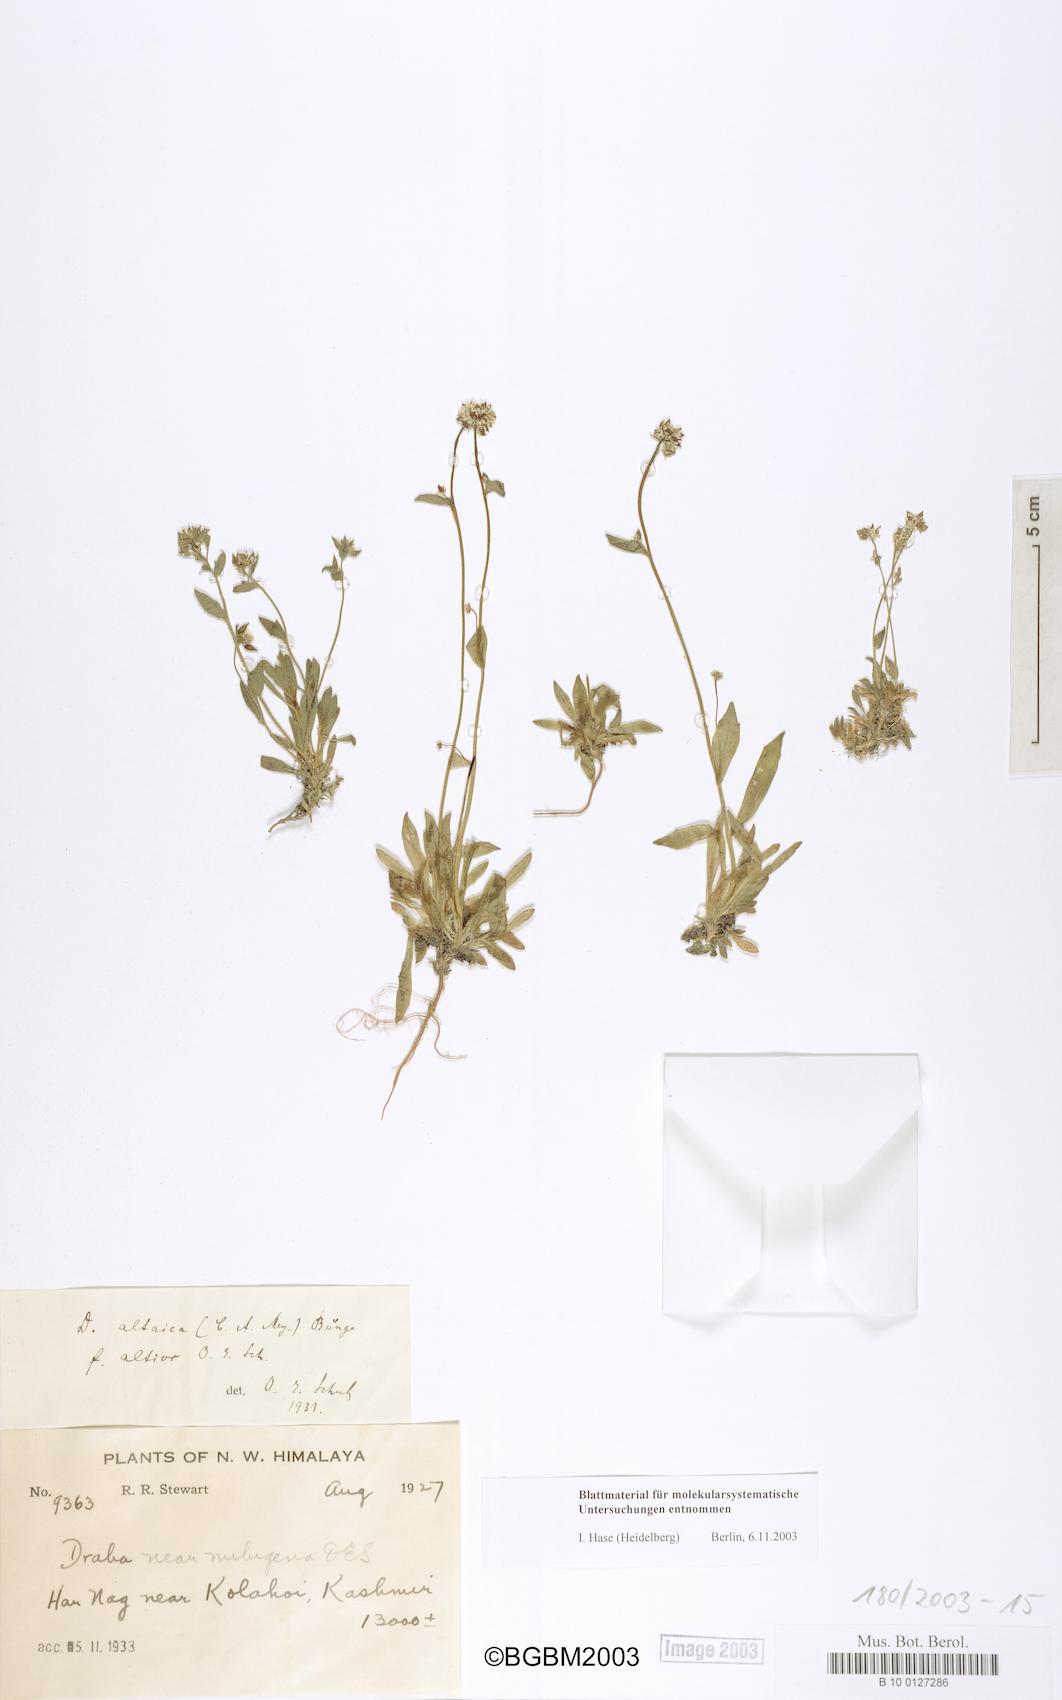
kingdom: Plantae
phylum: Tracheophyta
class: Magnoliopsida
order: Brassicales
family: Brassicaceae
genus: Draba
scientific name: Draba altaica
